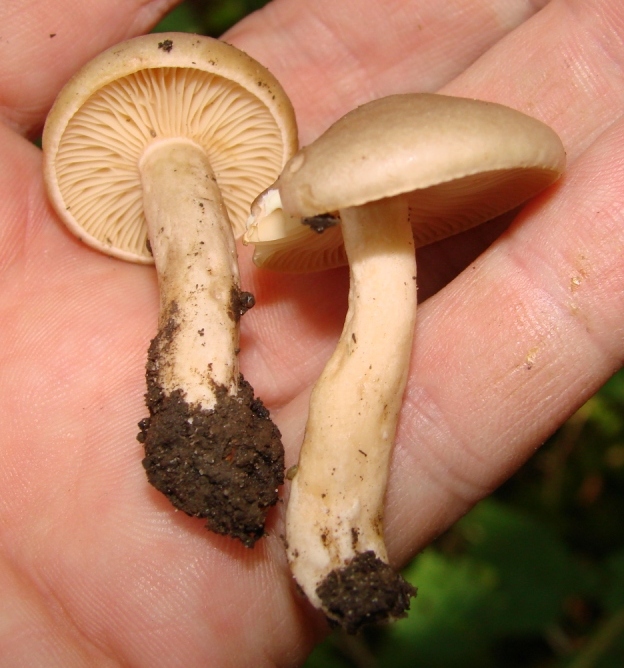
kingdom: Fungi
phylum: Basidiomycota
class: Agaricomycetes
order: Russulales
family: Russulaceae
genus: Lactarius
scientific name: Lactarius pyrogalus
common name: hassel-mælkehat
